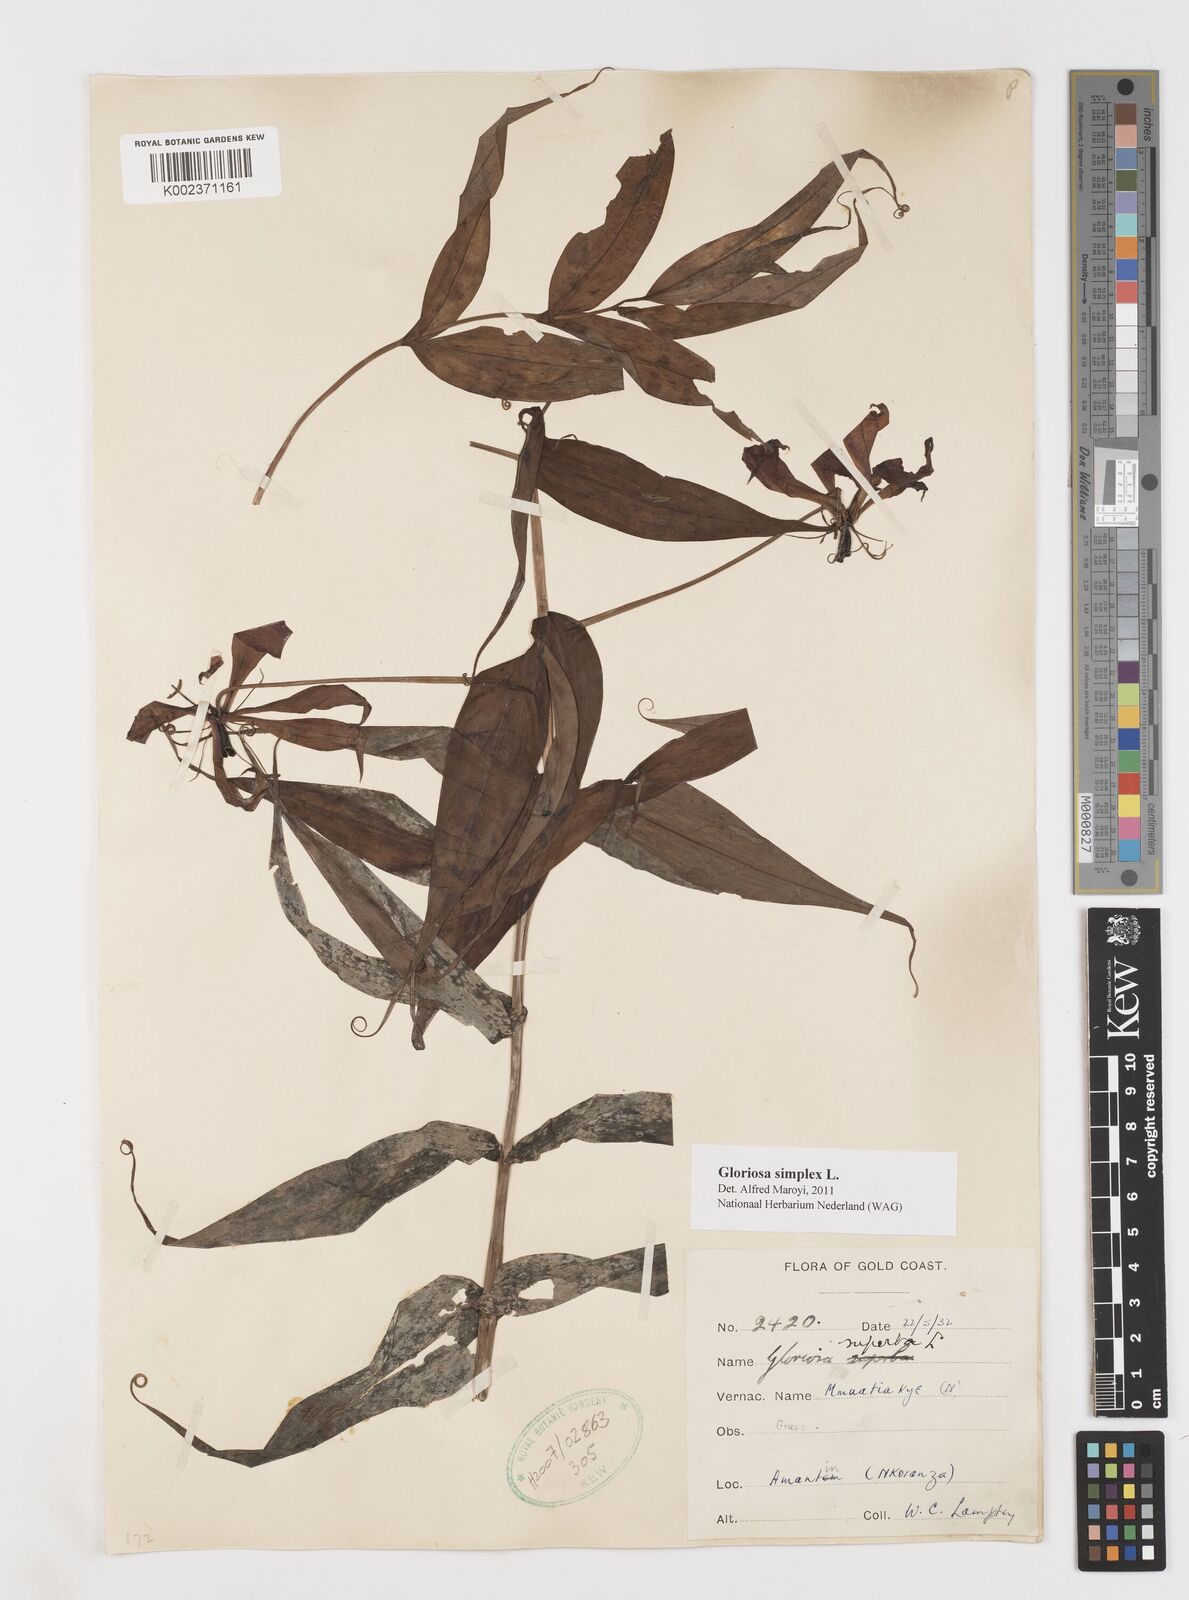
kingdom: Plantae
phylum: Tracheophyta
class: Liliopsida
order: Liliales
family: Colchicaceae
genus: Gloriosa
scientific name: Gloriosa simplex
